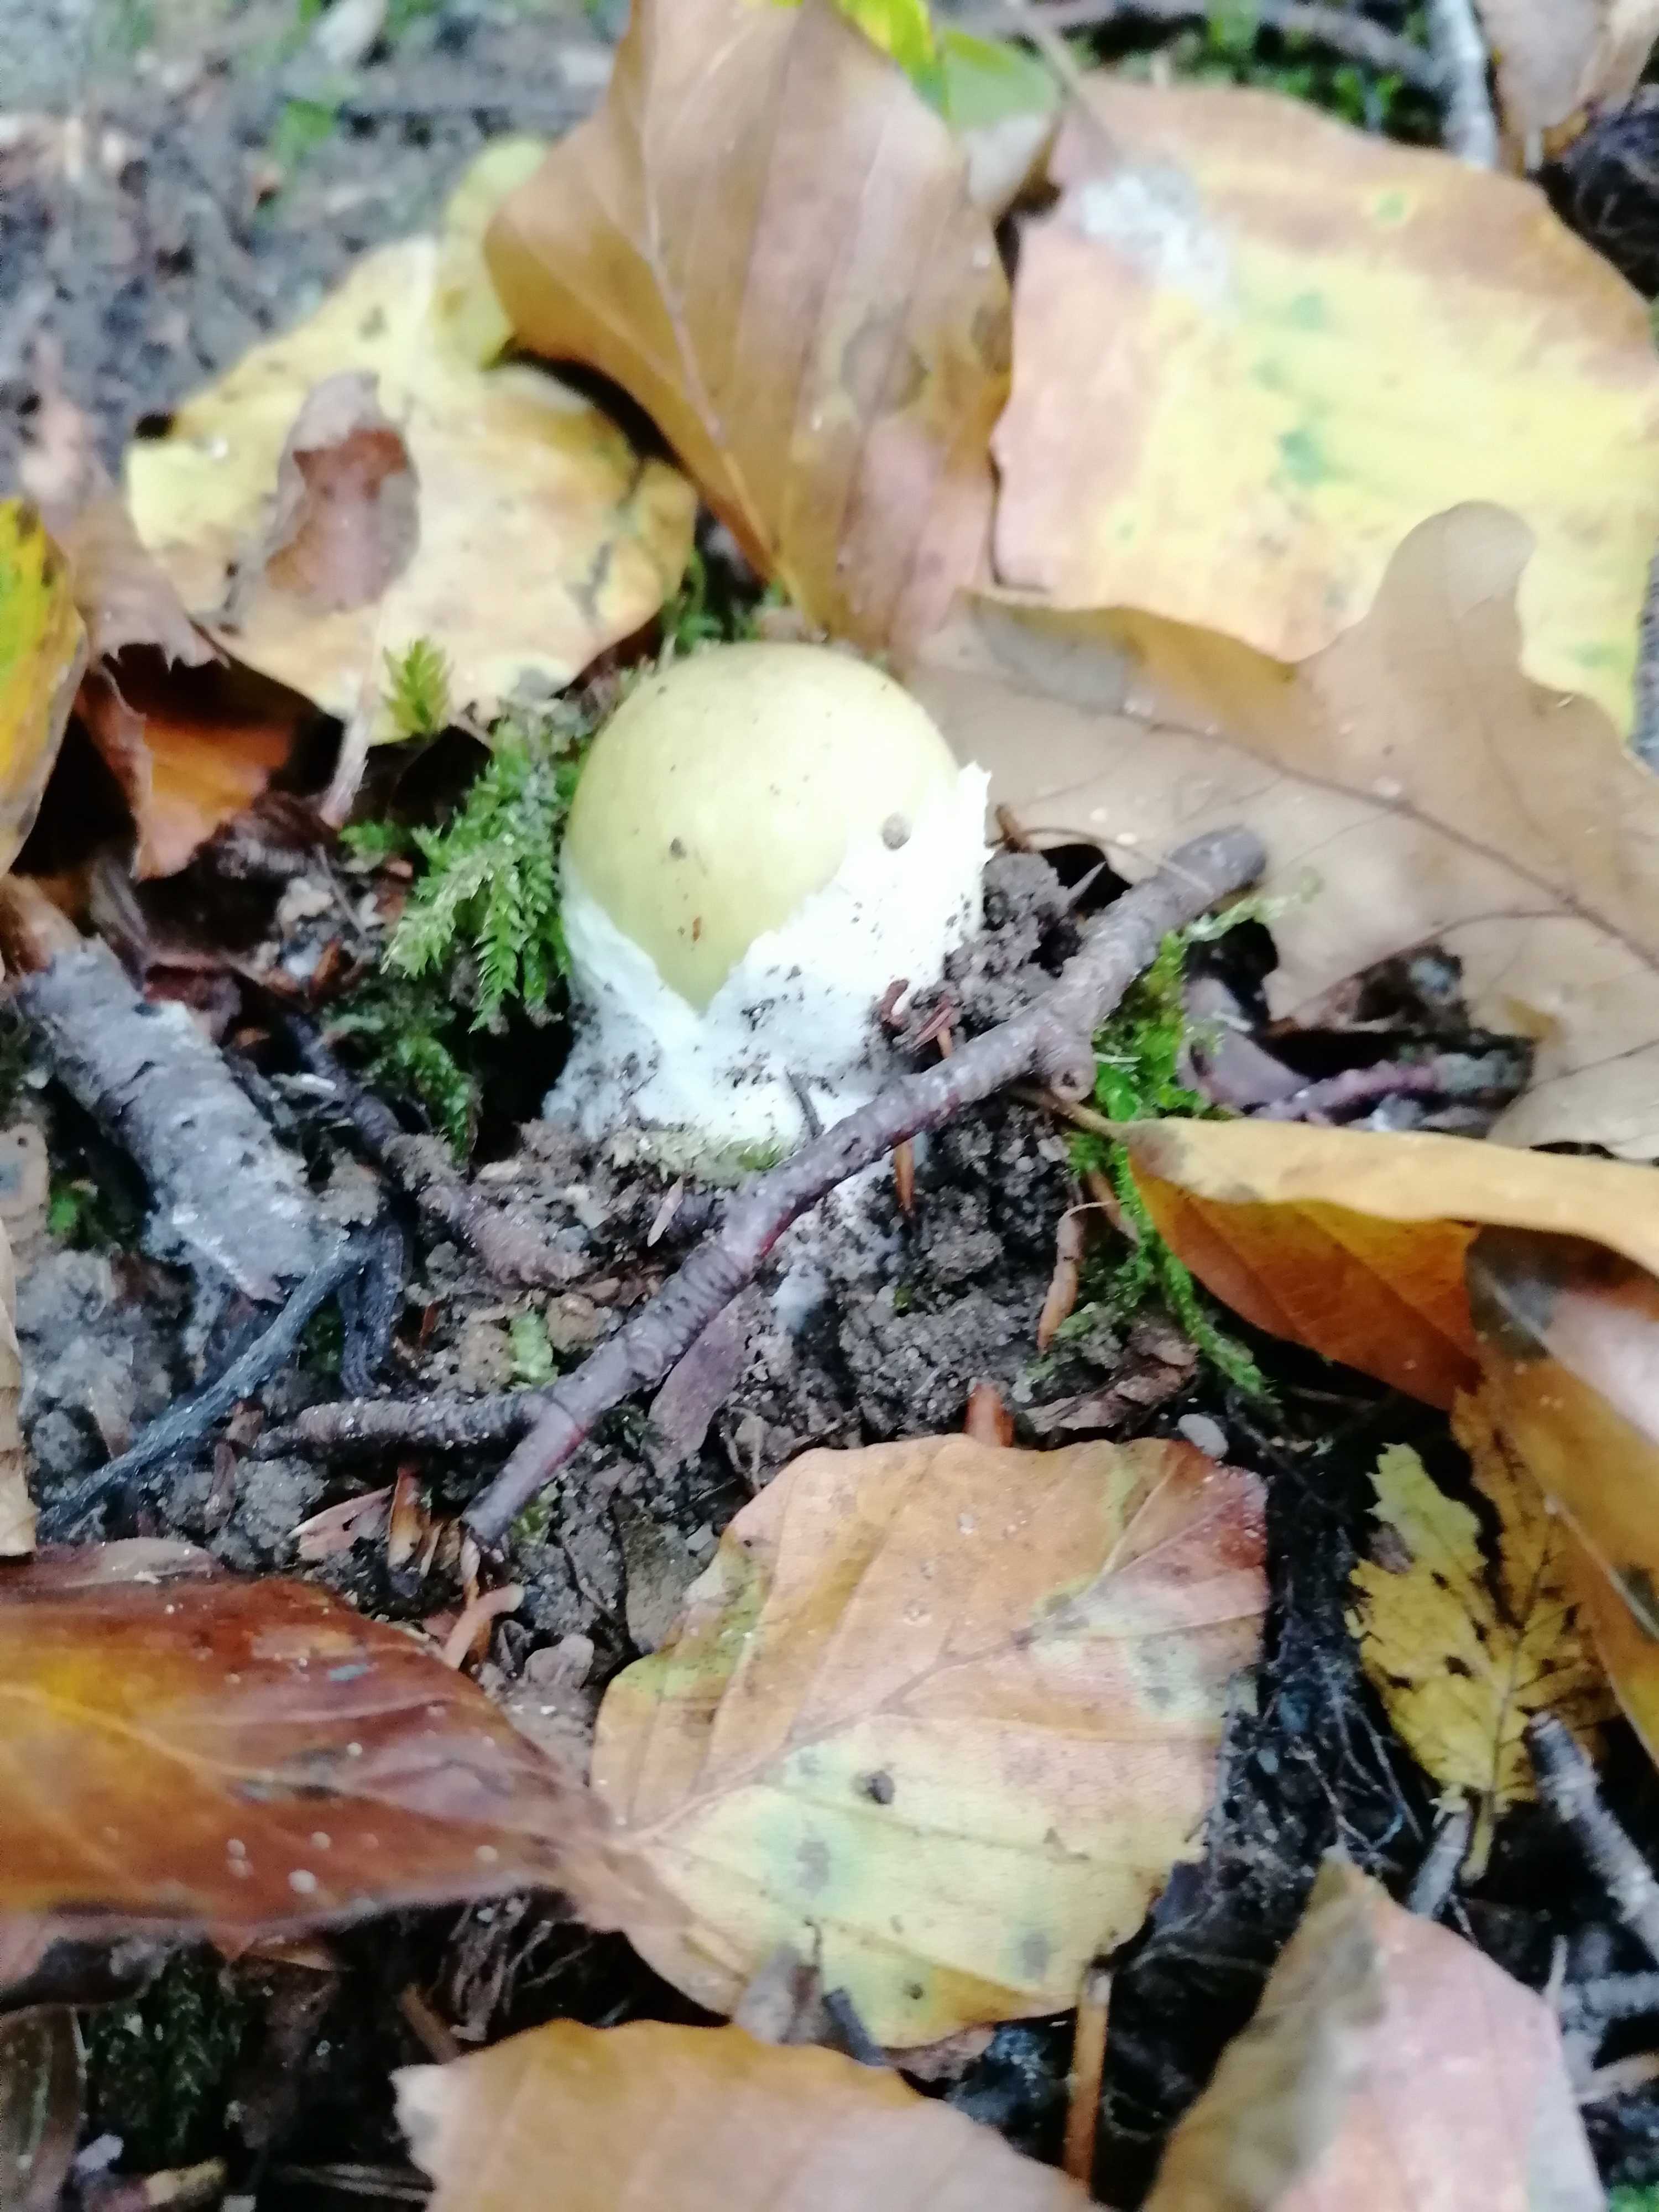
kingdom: Fungi
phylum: Basidiomycota
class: Agaricomycetes
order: Agaricales
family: Amanitaceae
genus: Amanita
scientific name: Amanita phalloides
